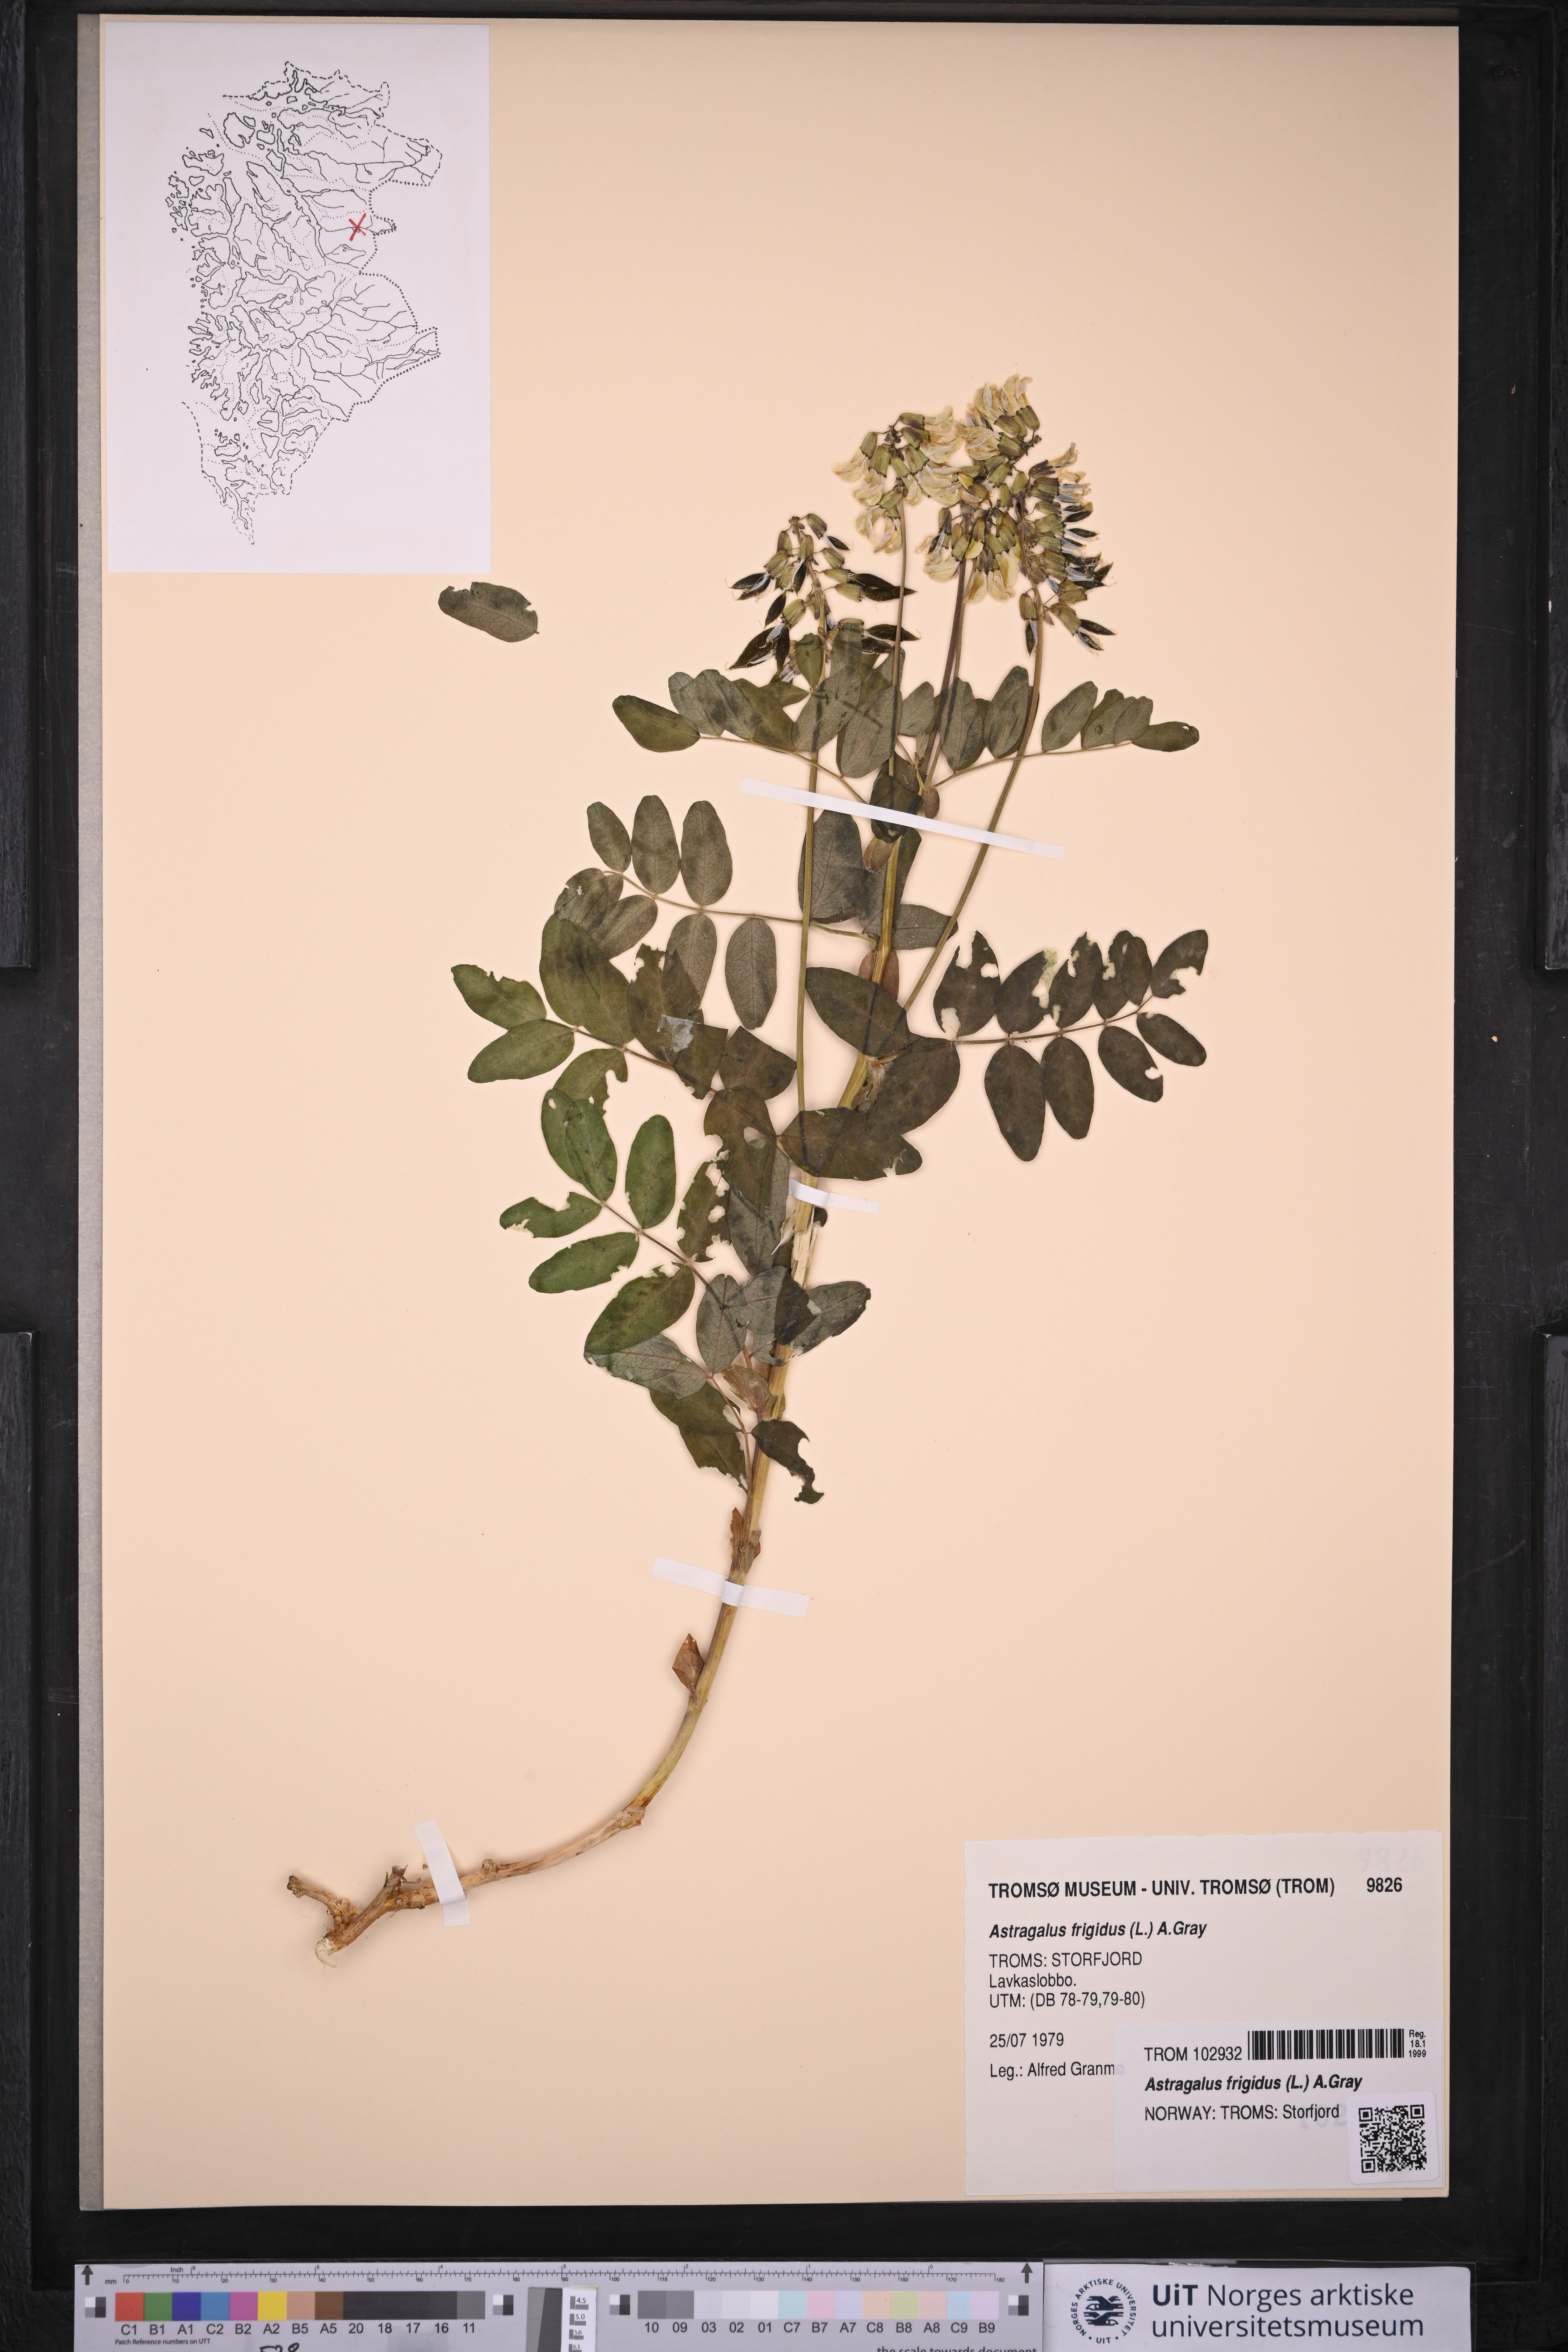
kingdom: Plantae
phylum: Tracheophyta
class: Magnoliopsida
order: Fabales
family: Fabaceae
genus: Astragalus
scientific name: Astragalus frigidus
